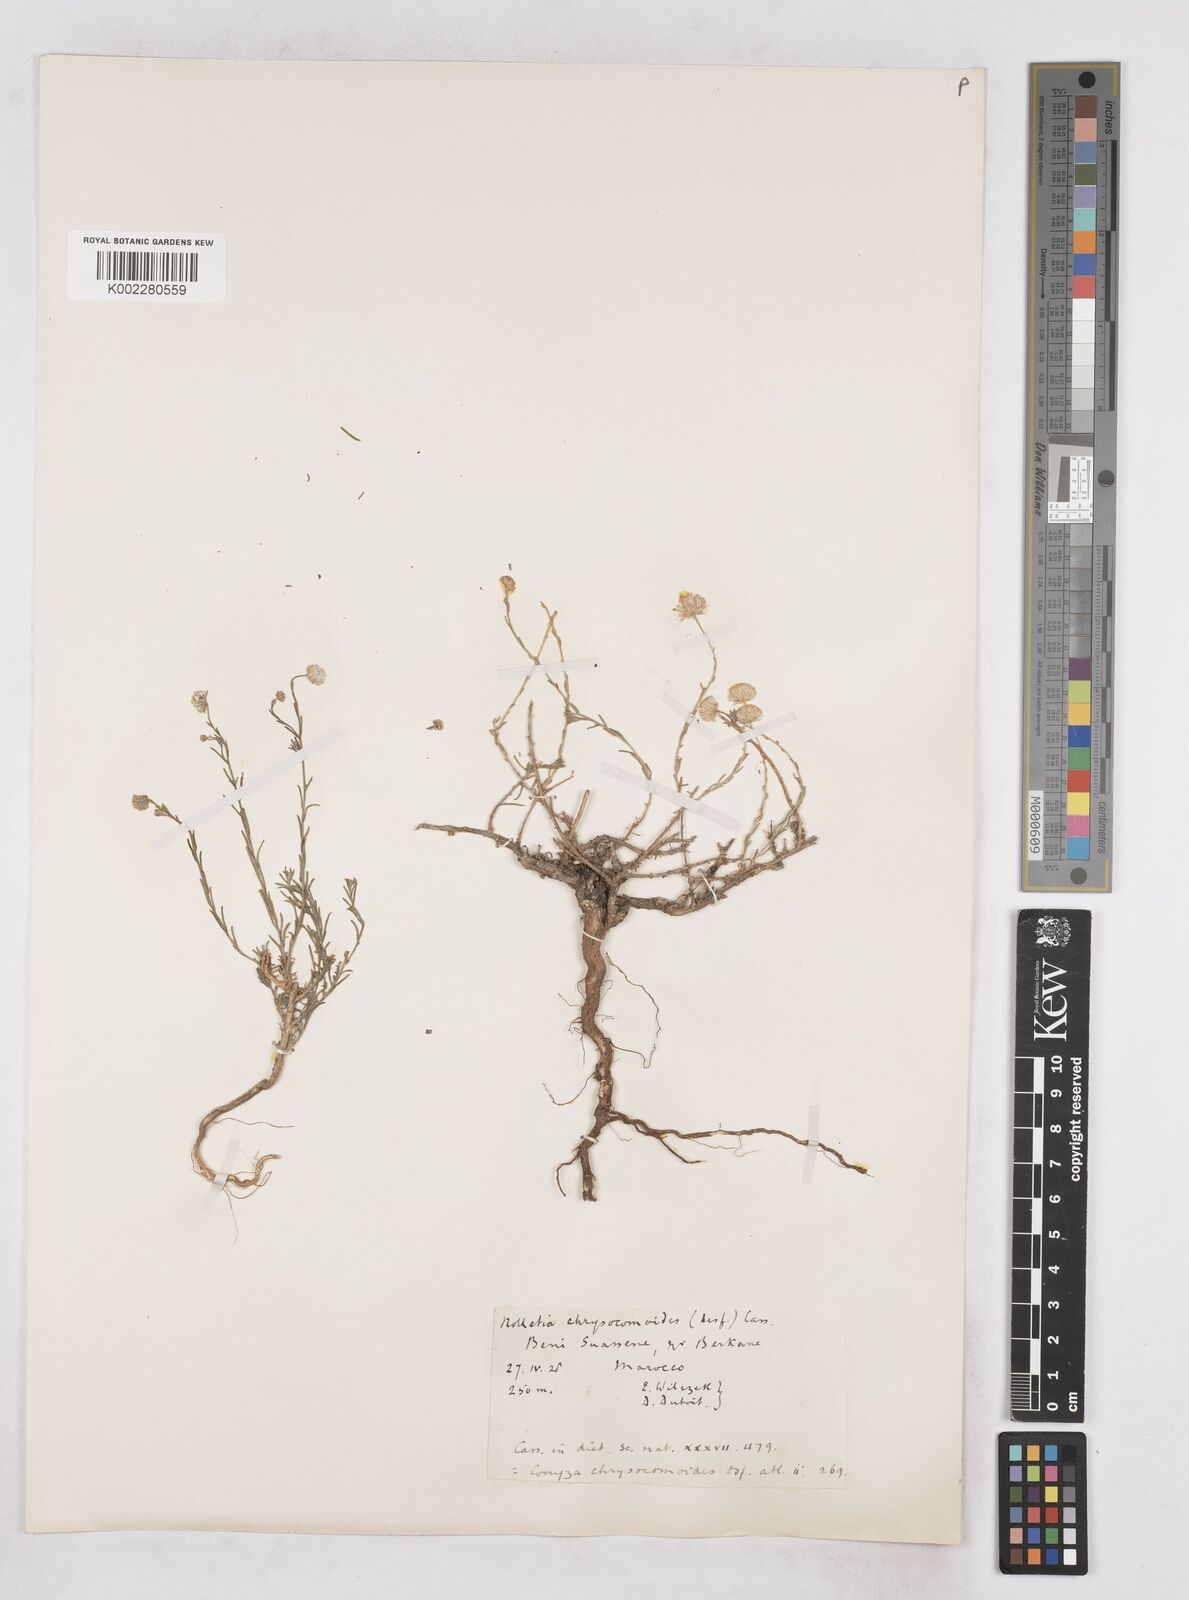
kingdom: Plantae
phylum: Tracheophyta
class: Magnoliopsida
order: Asterales
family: Asteraceae
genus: Nolletia
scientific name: Nolletia chrysocomoides
